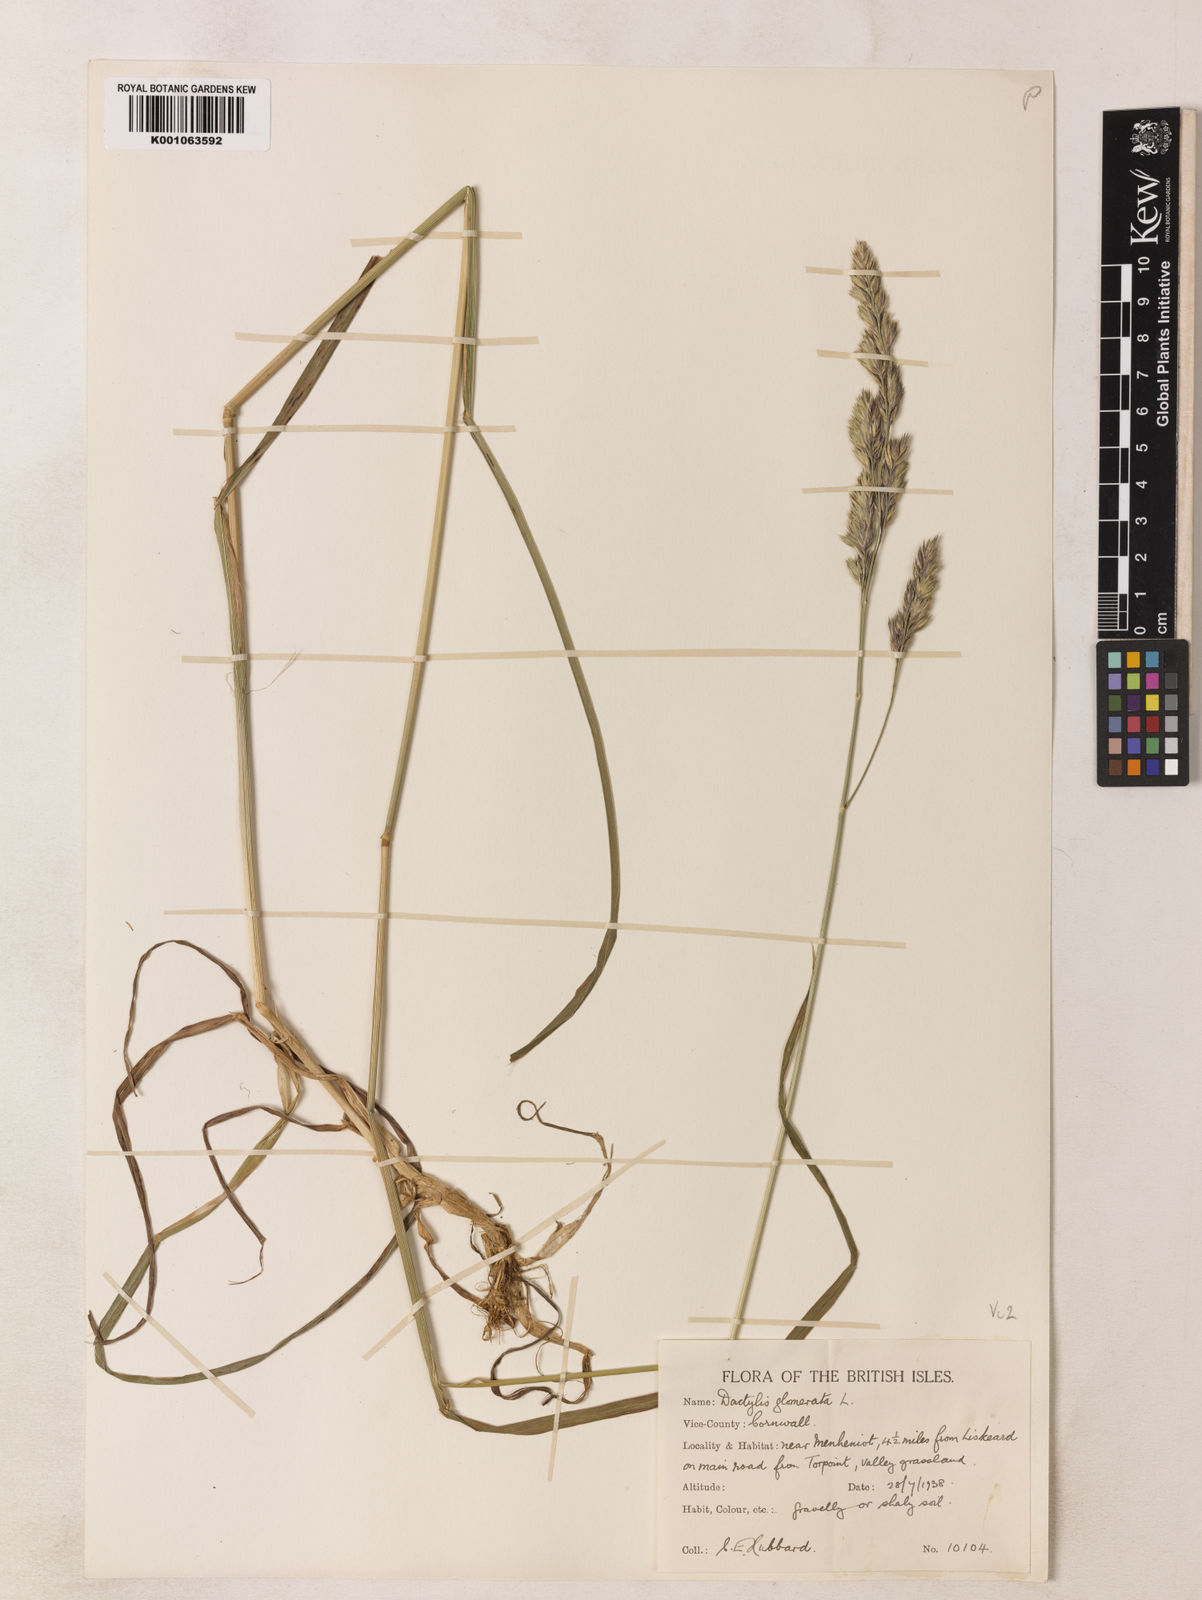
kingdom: Plantae
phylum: Tracheophyta
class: Liliopsida
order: Poales
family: Poaceae
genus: Dactylis
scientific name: Dactylis glomerata
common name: Orchardgrass
